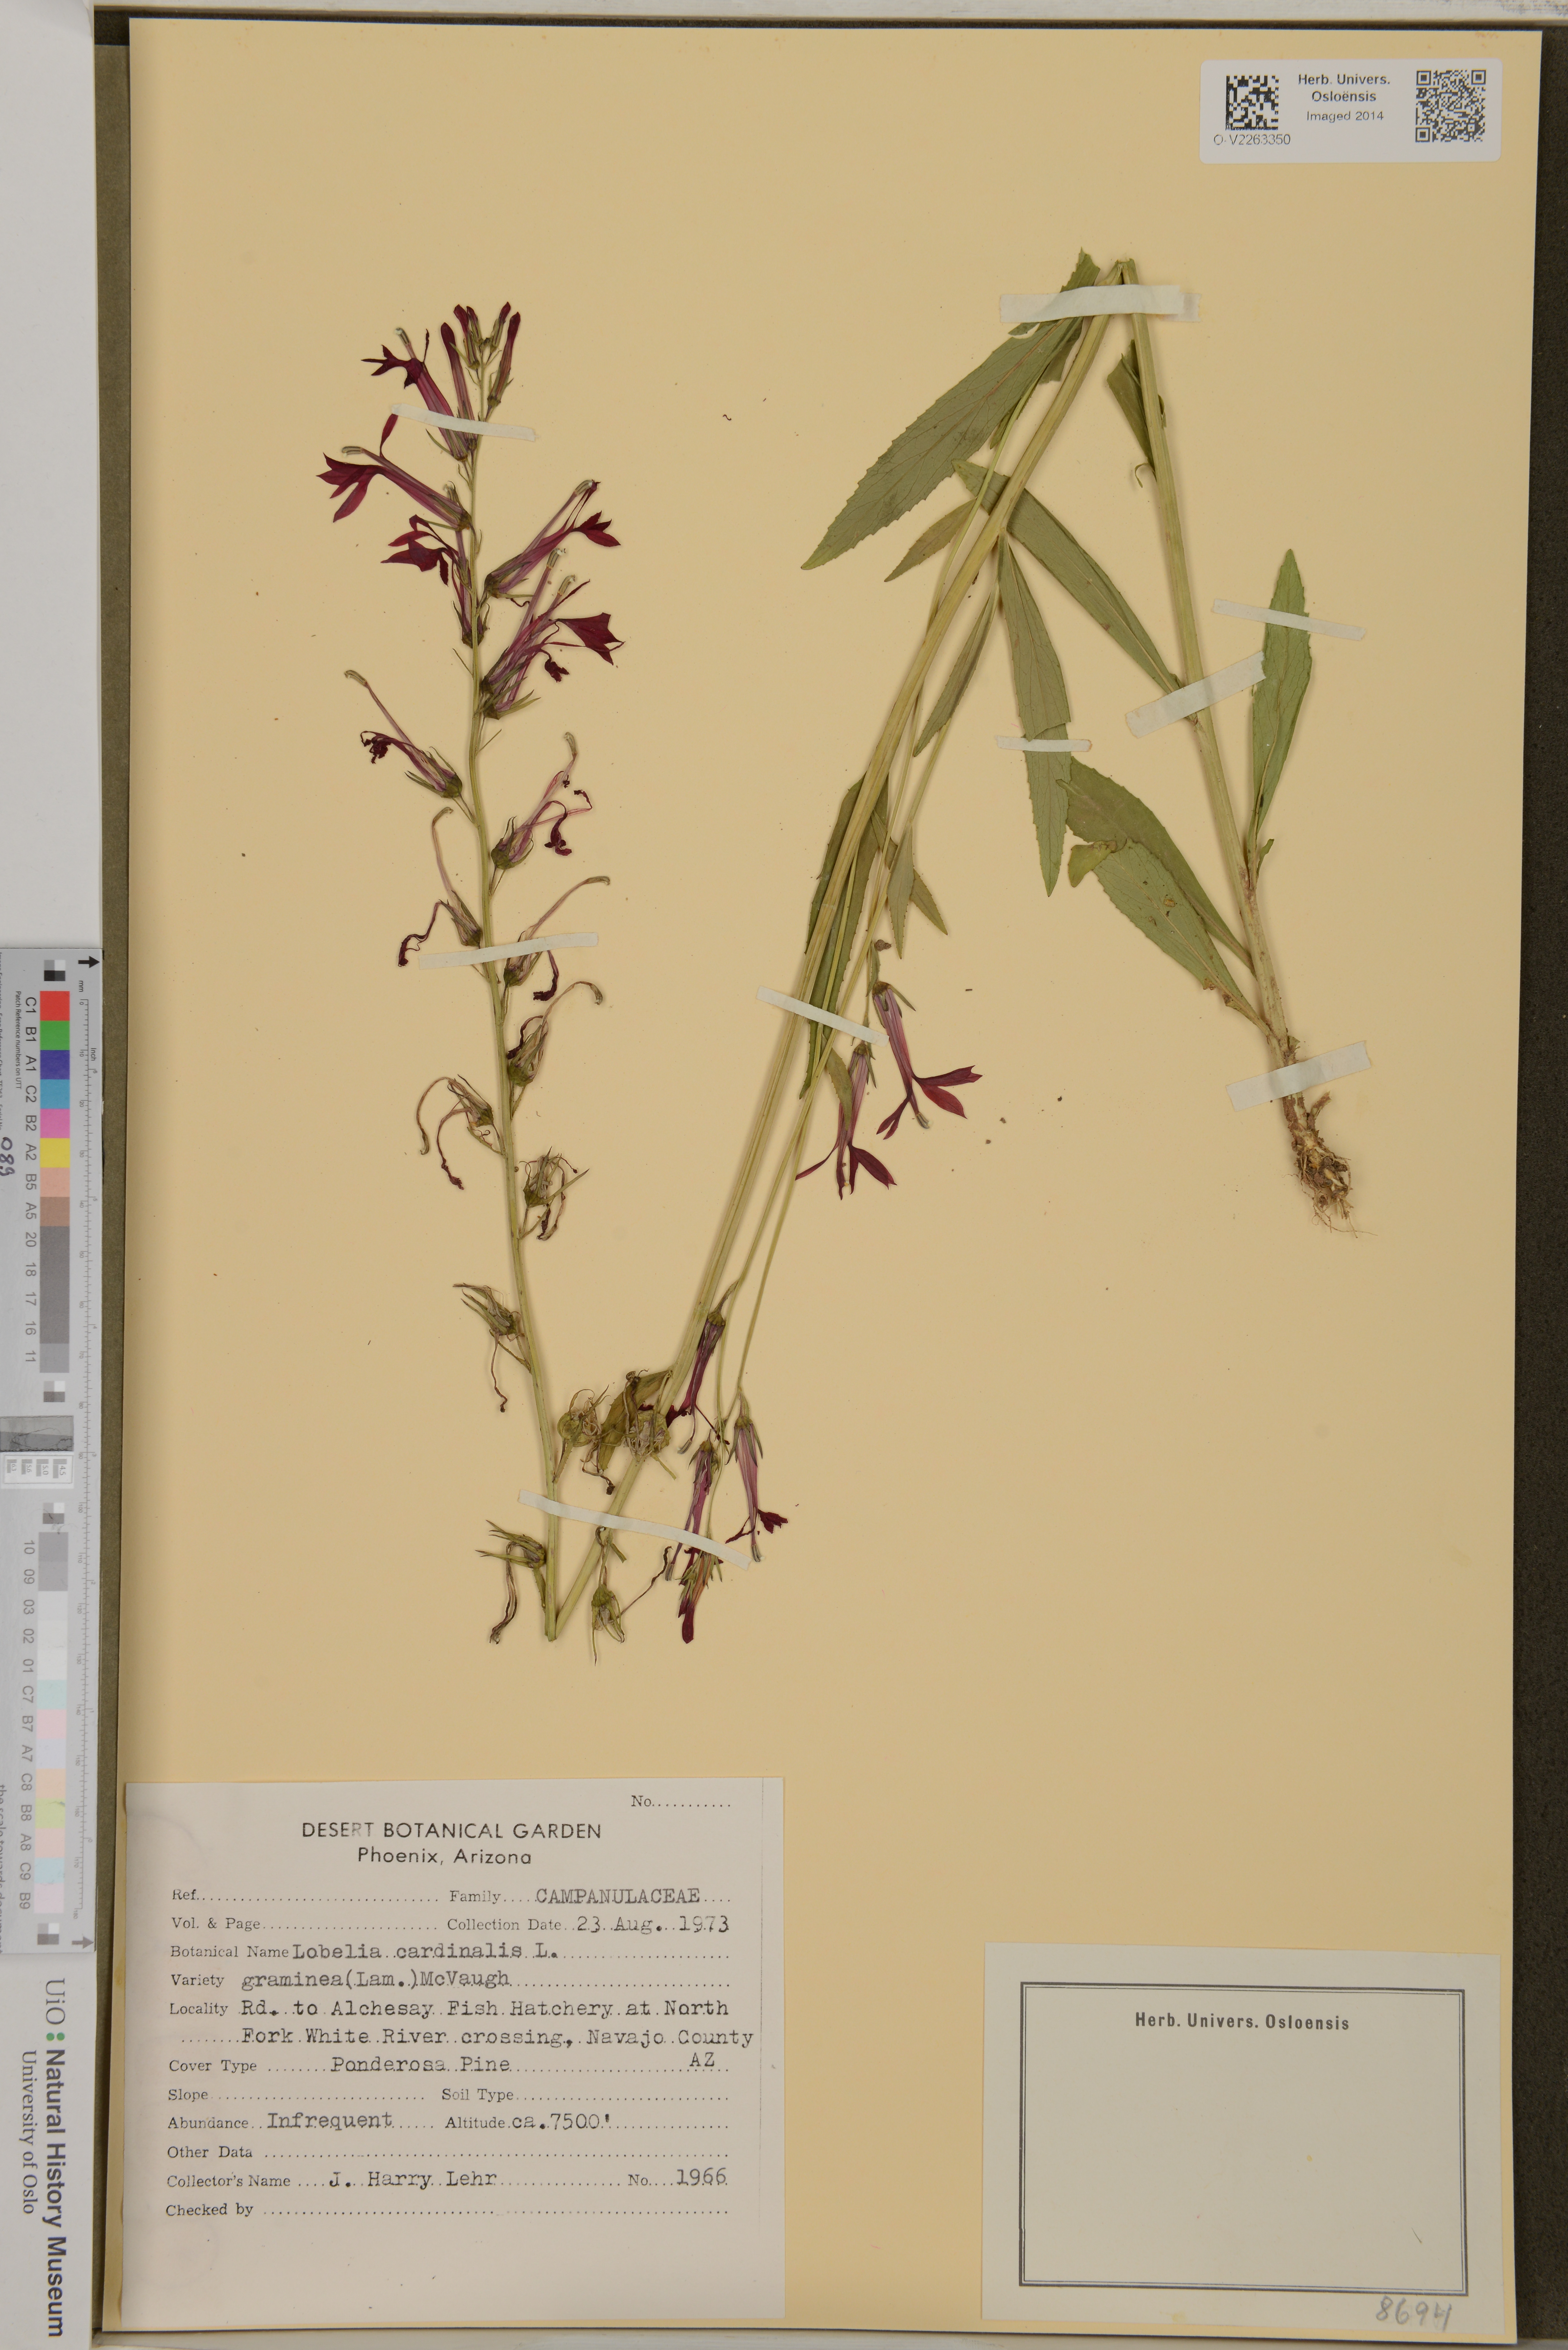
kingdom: Plantae
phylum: Tracheophyta
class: Magnoliopsida
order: Asterales
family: Campanulaceae
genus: Lobelia
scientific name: Lobelia cardinalis
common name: Cardinal flower
